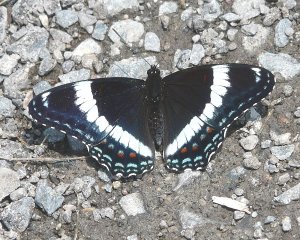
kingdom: Animalia
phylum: Arthropoda
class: Insecta
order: Lepidoptera
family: Nymphalidae
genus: Limenitis
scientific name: Limenitis arthemis
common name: Red-spotted Admiral
